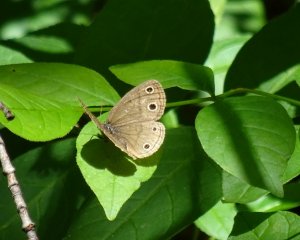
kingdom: Animalia
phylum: Arthropoda
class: Insecta
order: Lepidoptera
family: Nymphalidae
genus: Euptychia
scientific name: Euptychia cymela
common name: Little Wood Satyr
